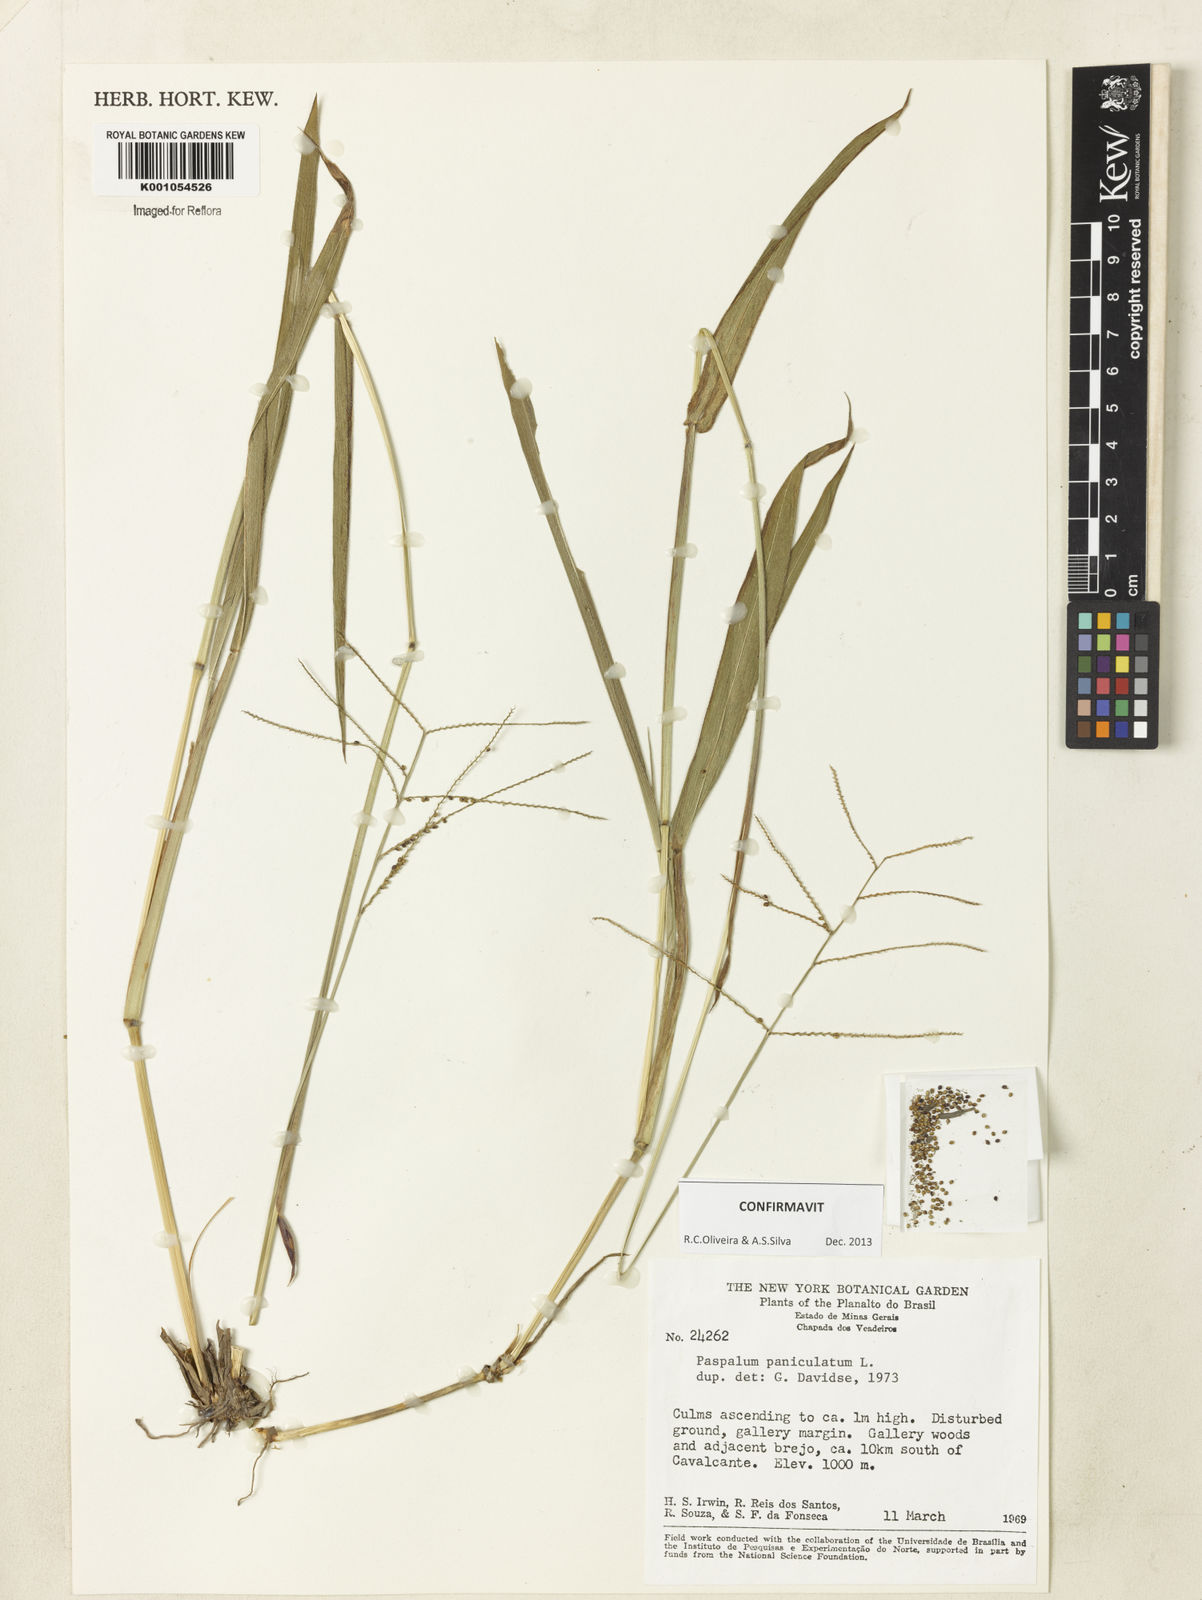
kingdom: Plantae
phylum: Tracheophyta
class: Liliopsida
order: Poales
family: Poaceae
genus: Paspalum
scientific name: Paspalum paniculatum
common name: Arrocillo
